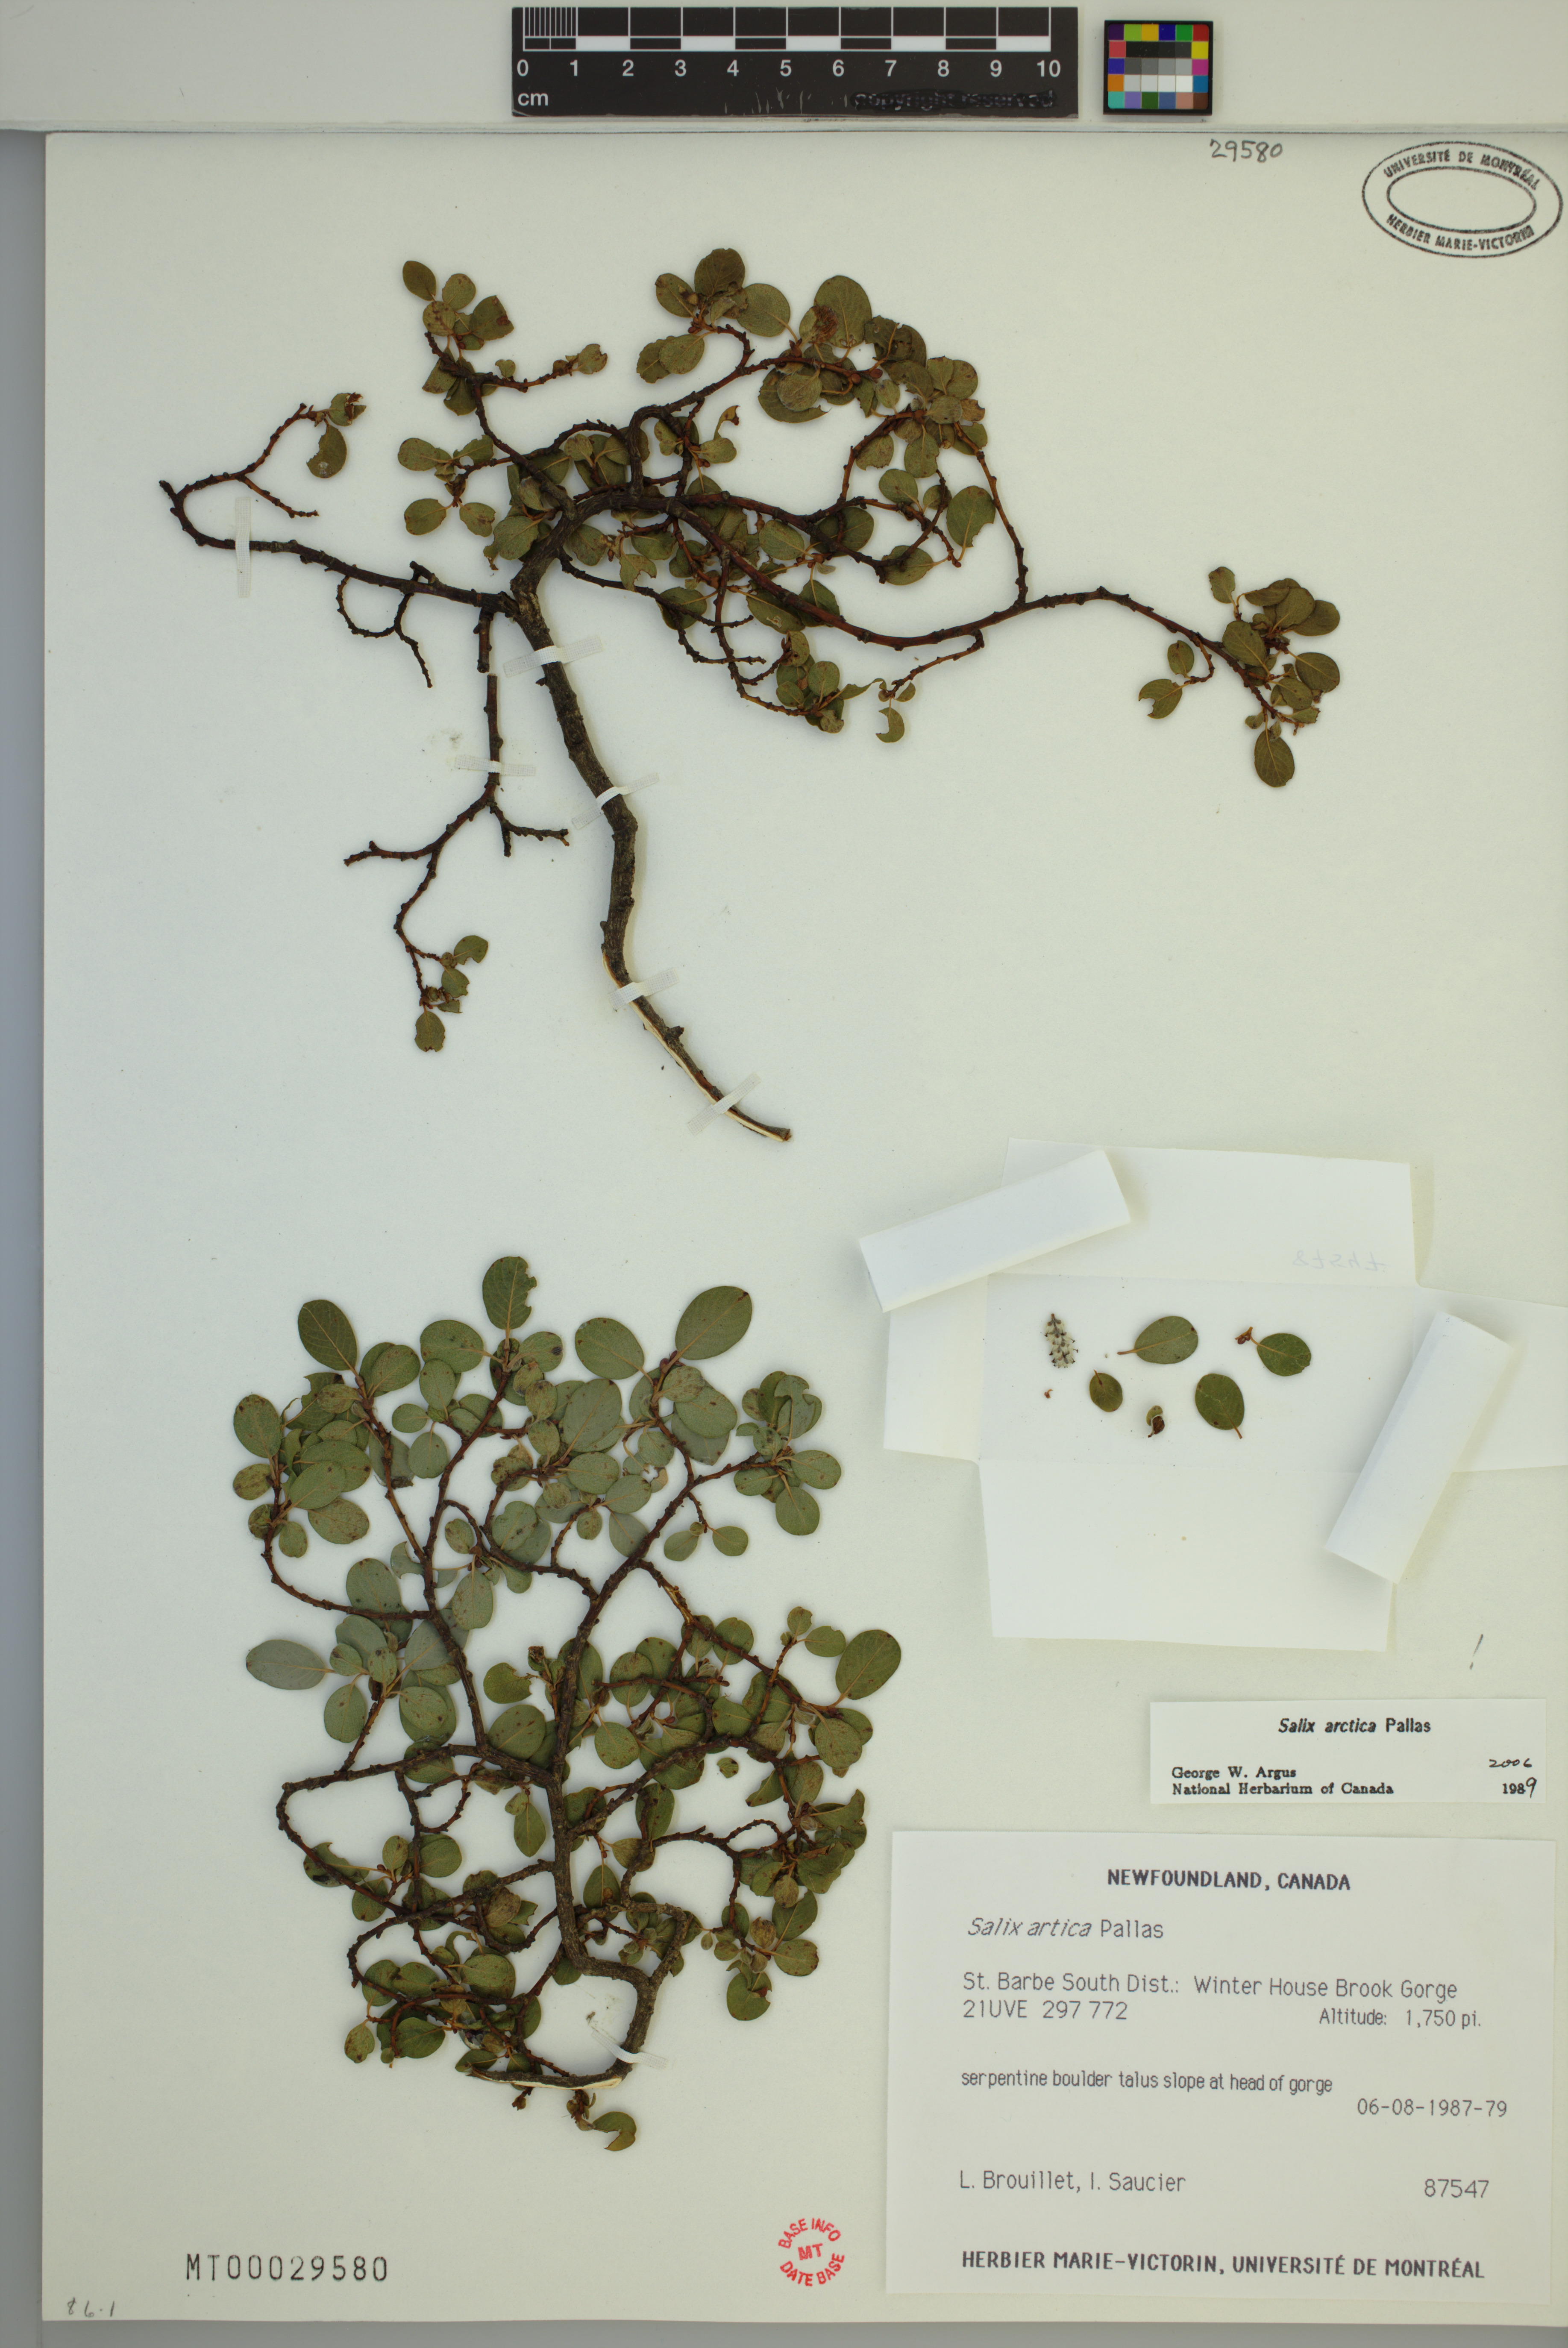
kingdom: Plantae
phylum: Tracheophyta
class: Magnoliopsida
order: Malpighiales
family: Salicaceae
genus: Salix
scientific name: Salix arctica
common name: Arctic willow
